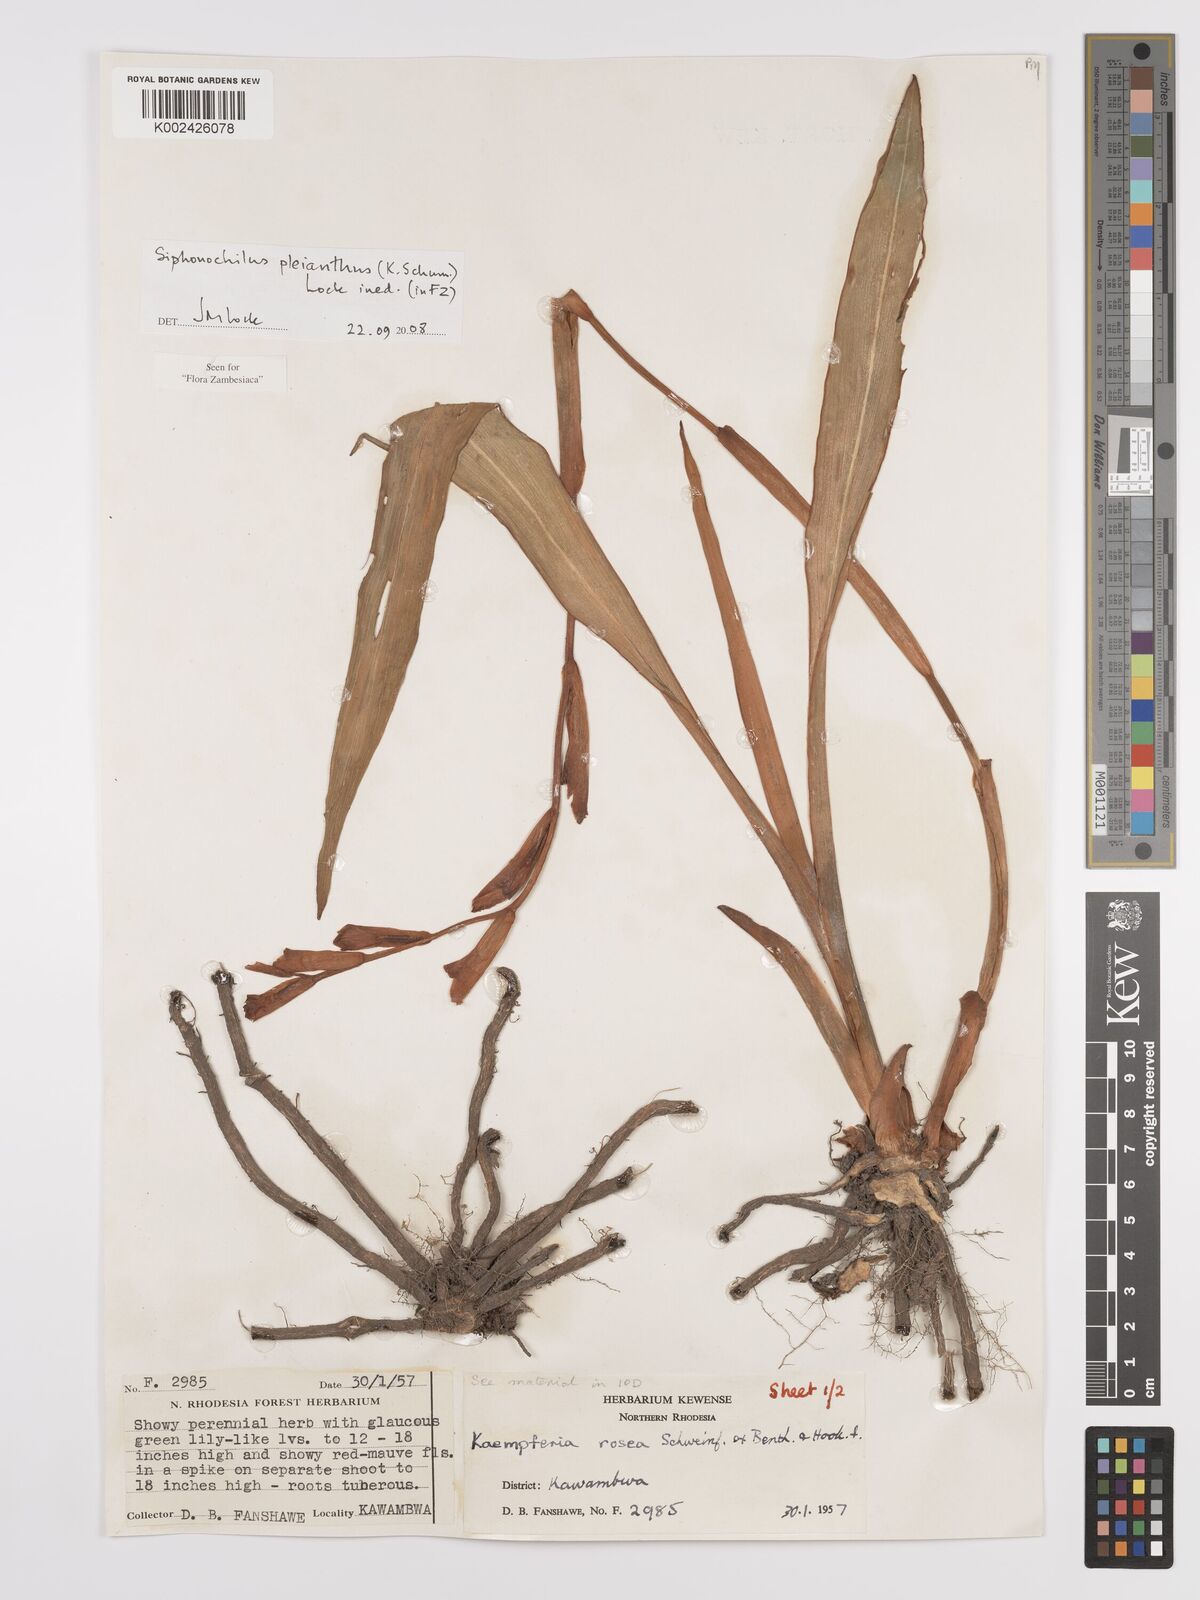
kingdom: Plantae
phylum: Tracheophyta
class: Liliopsida
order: Zingiberales
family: Zingiberaceae
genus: Siphonochilus
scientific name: Siphonochilus pleianthus
